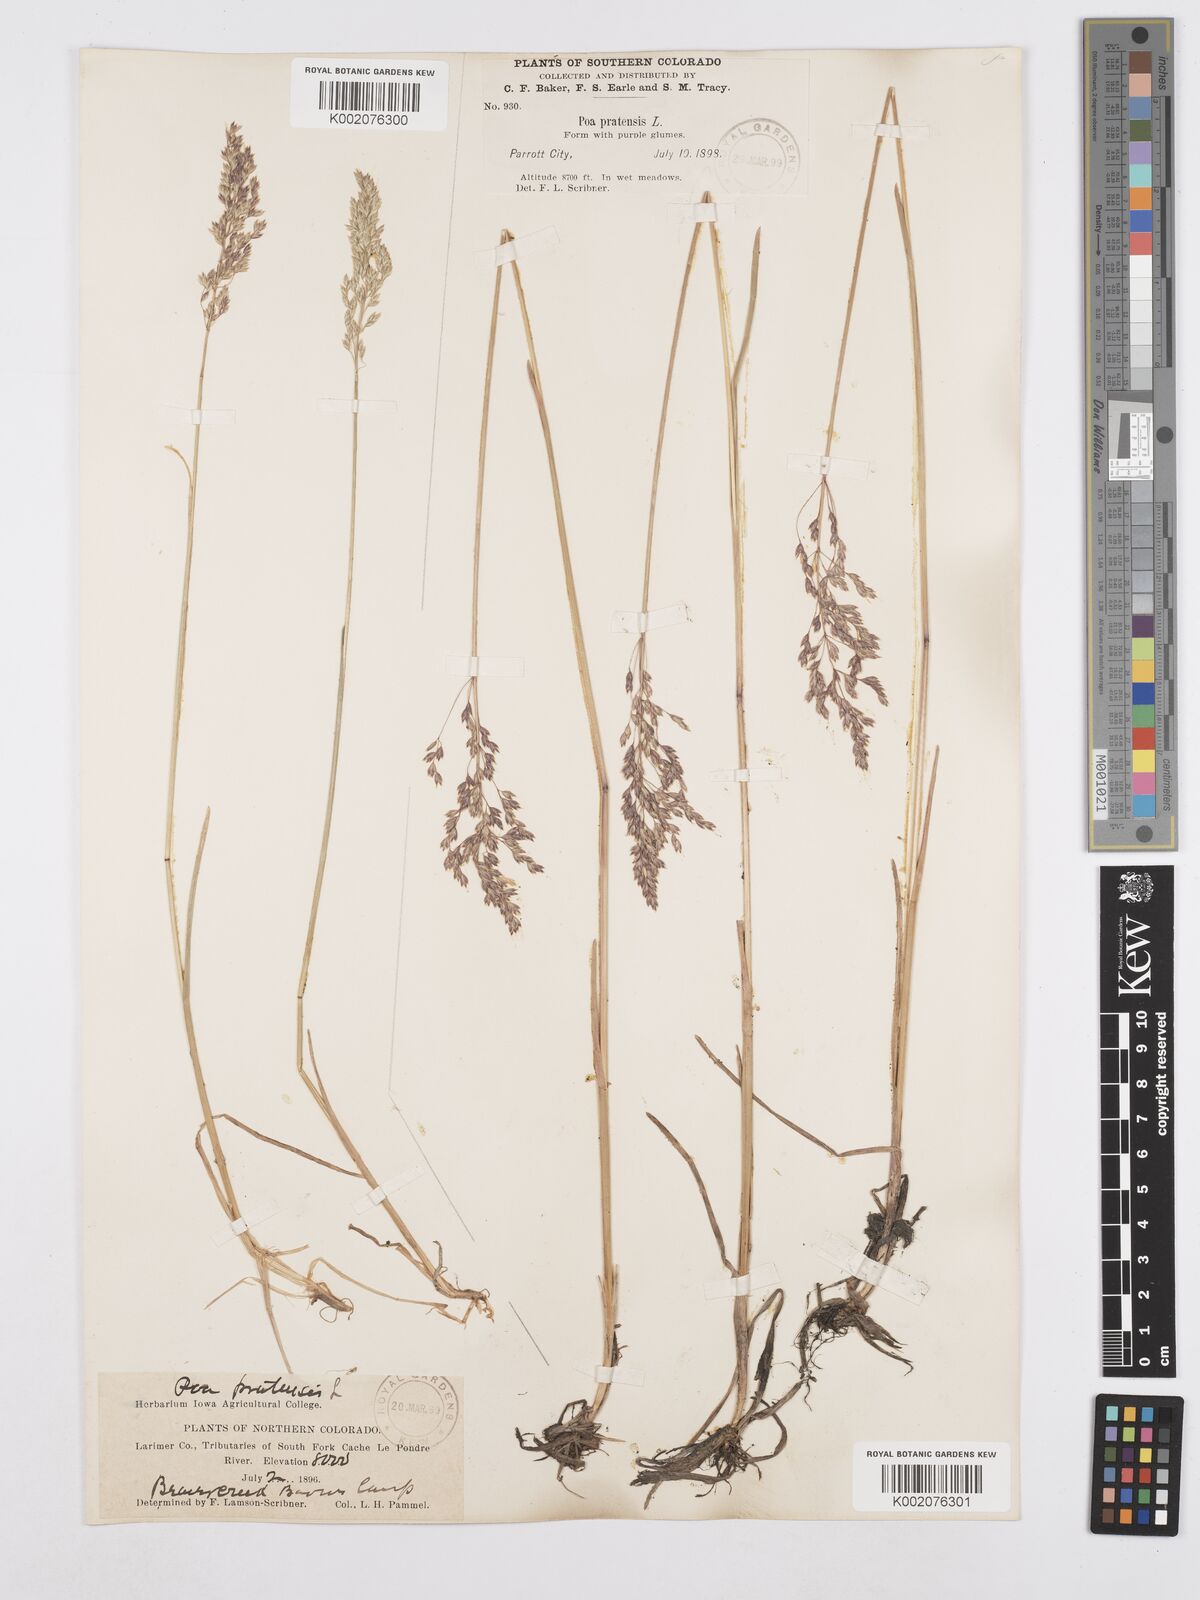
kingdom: Plantae
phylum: Tracheophyta
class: Liliopsida
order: Poales
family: Poaceae
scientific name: Poaceae
